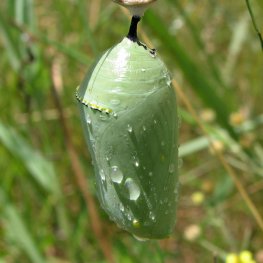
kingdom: Animalia
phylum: Arthropoda
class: Insecta
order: Lepidoptera
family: Nymphalidae
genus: Danaus
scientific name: Danaus plexippus
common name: Monarch
